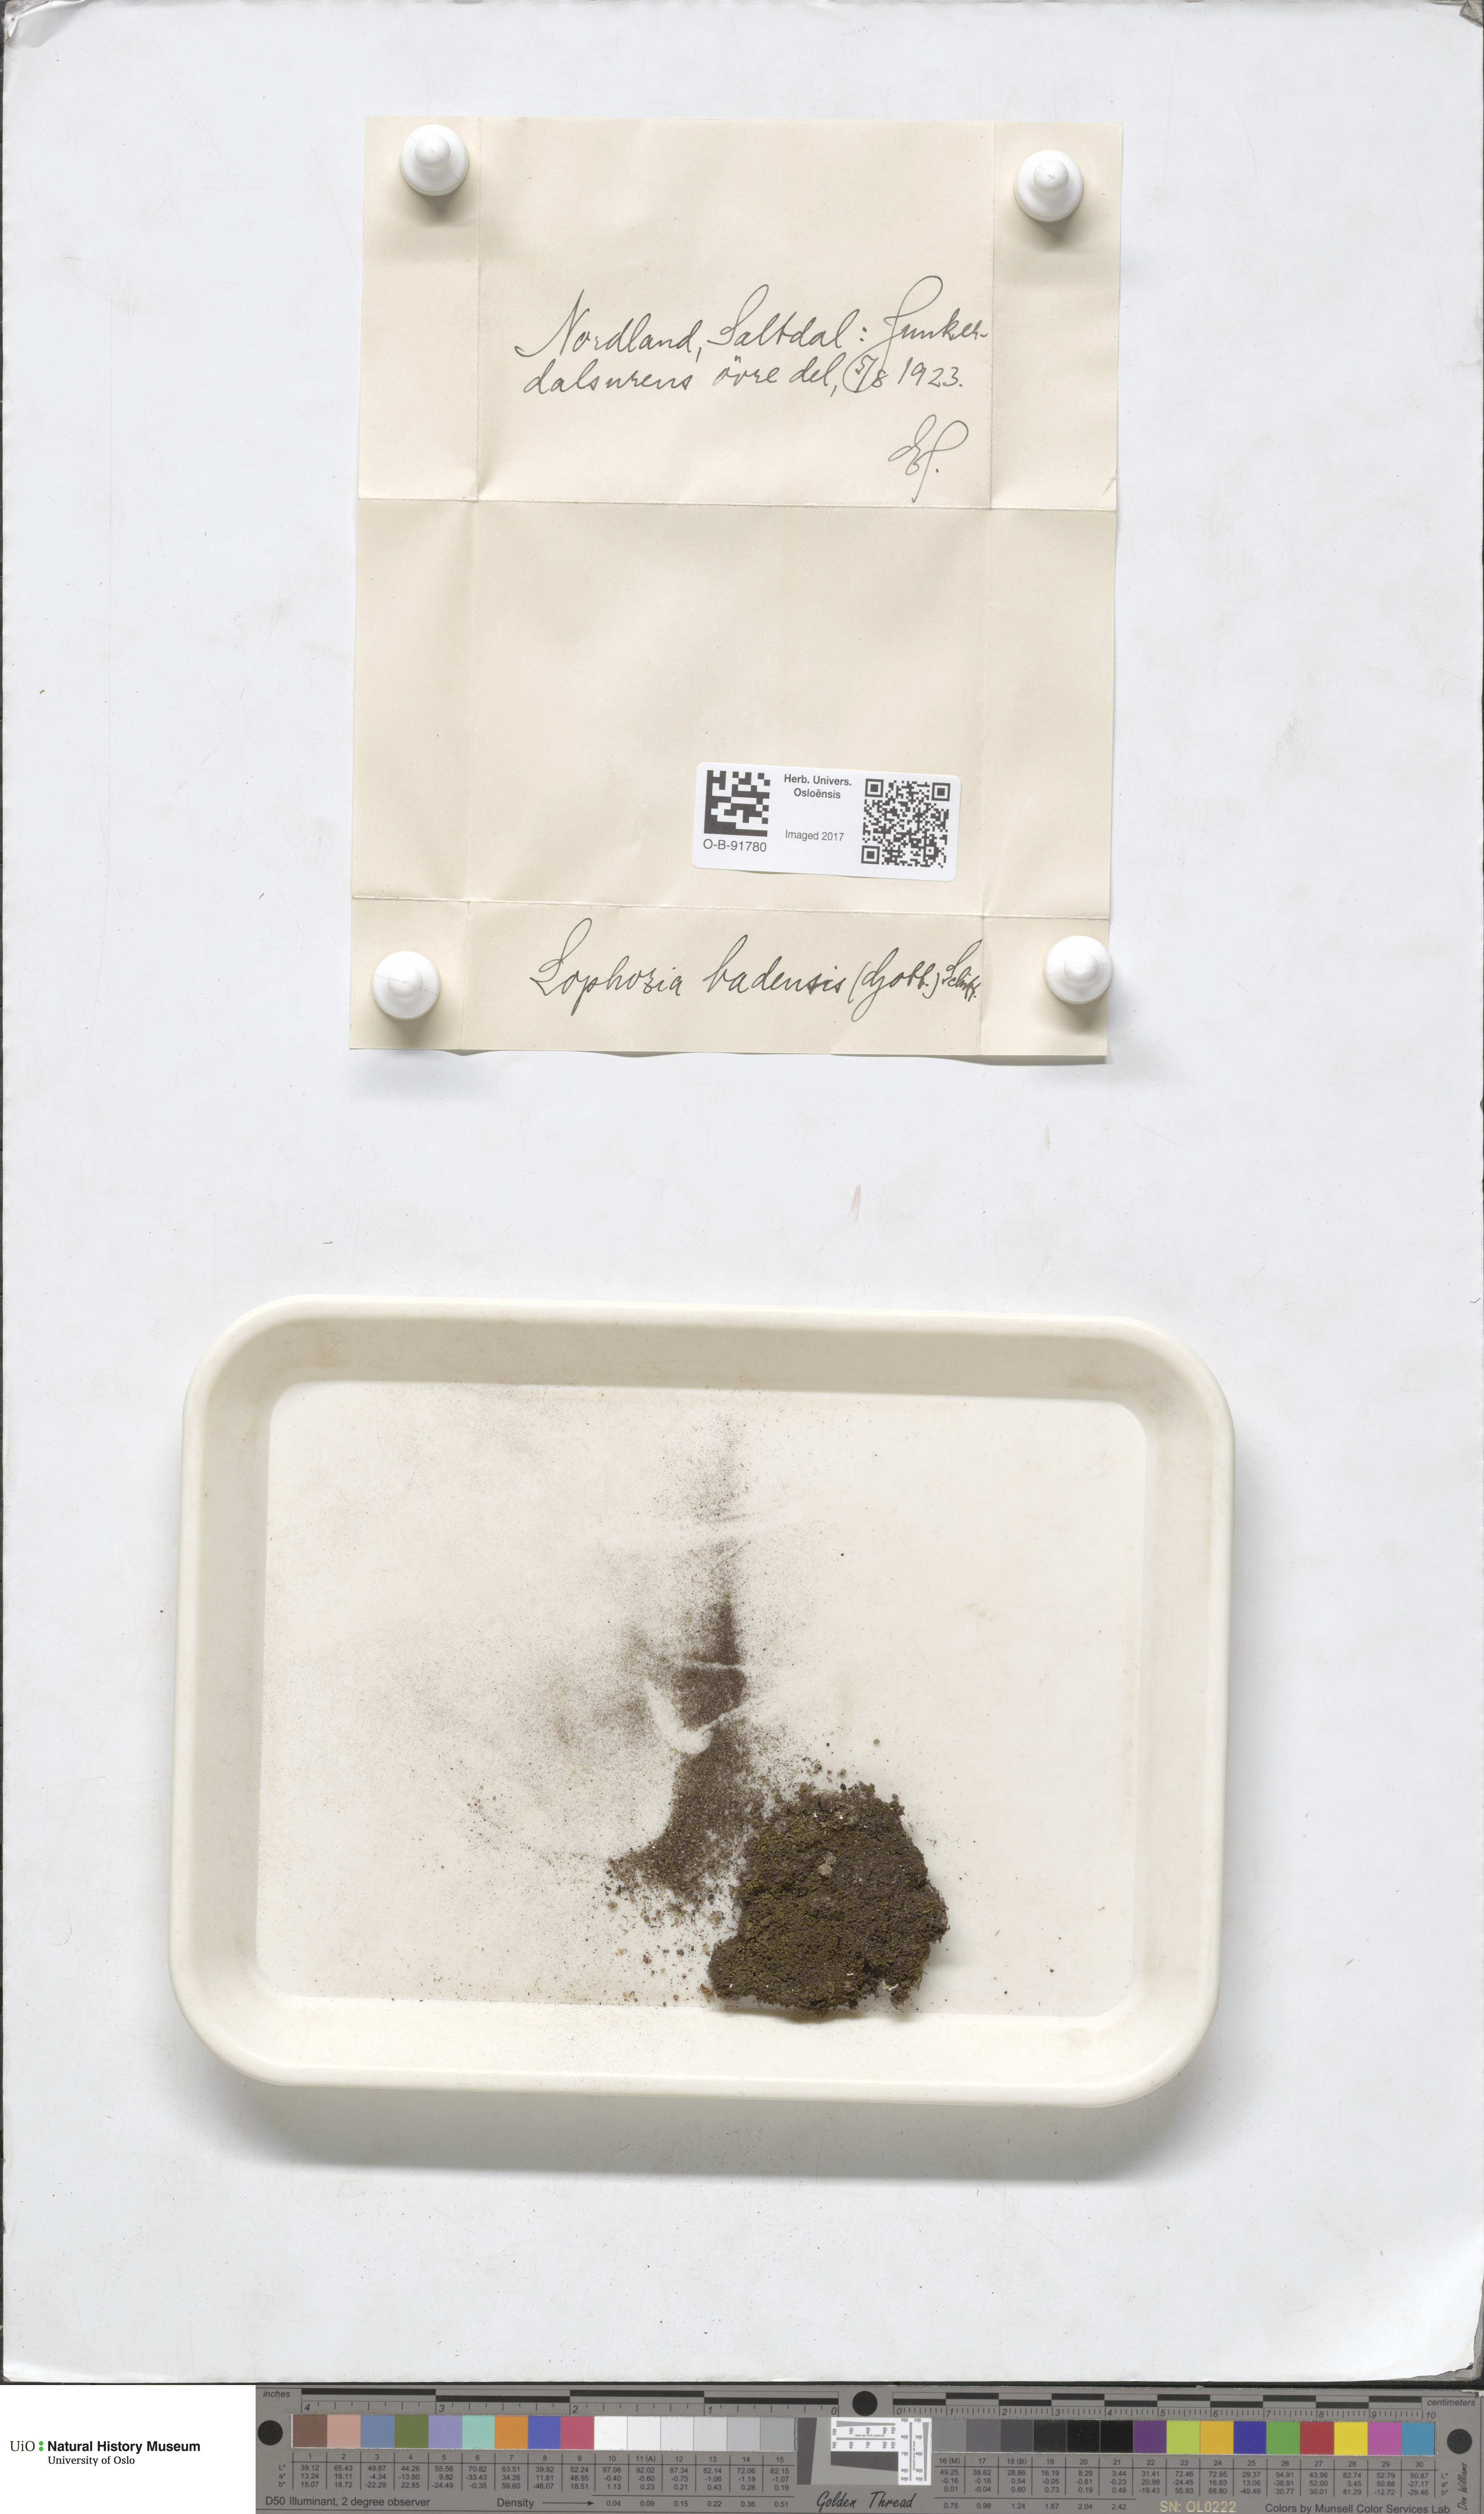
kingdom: Plantae
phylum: Marchantiophyta
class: Jungermanniopsida
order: Jungermanniales
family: Jungermanniaceae
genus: Mesoptychia
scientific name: Mesoptychia badensis
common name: Scarce notchwort
